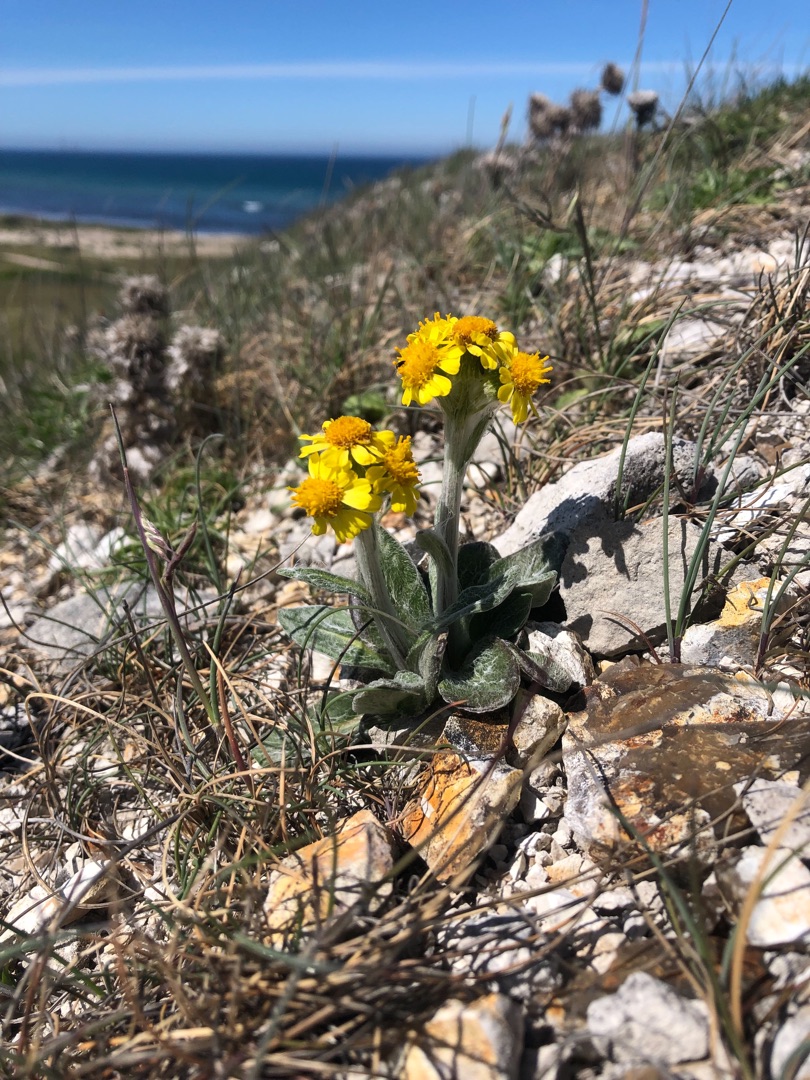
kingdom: Plantae
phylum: Tracheophyta
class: Magnoliopsida
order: Asterales
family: Asteraceae
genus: Tephroseris
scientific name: Tephroseris integrifolia
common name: Bakke-fnokurt
